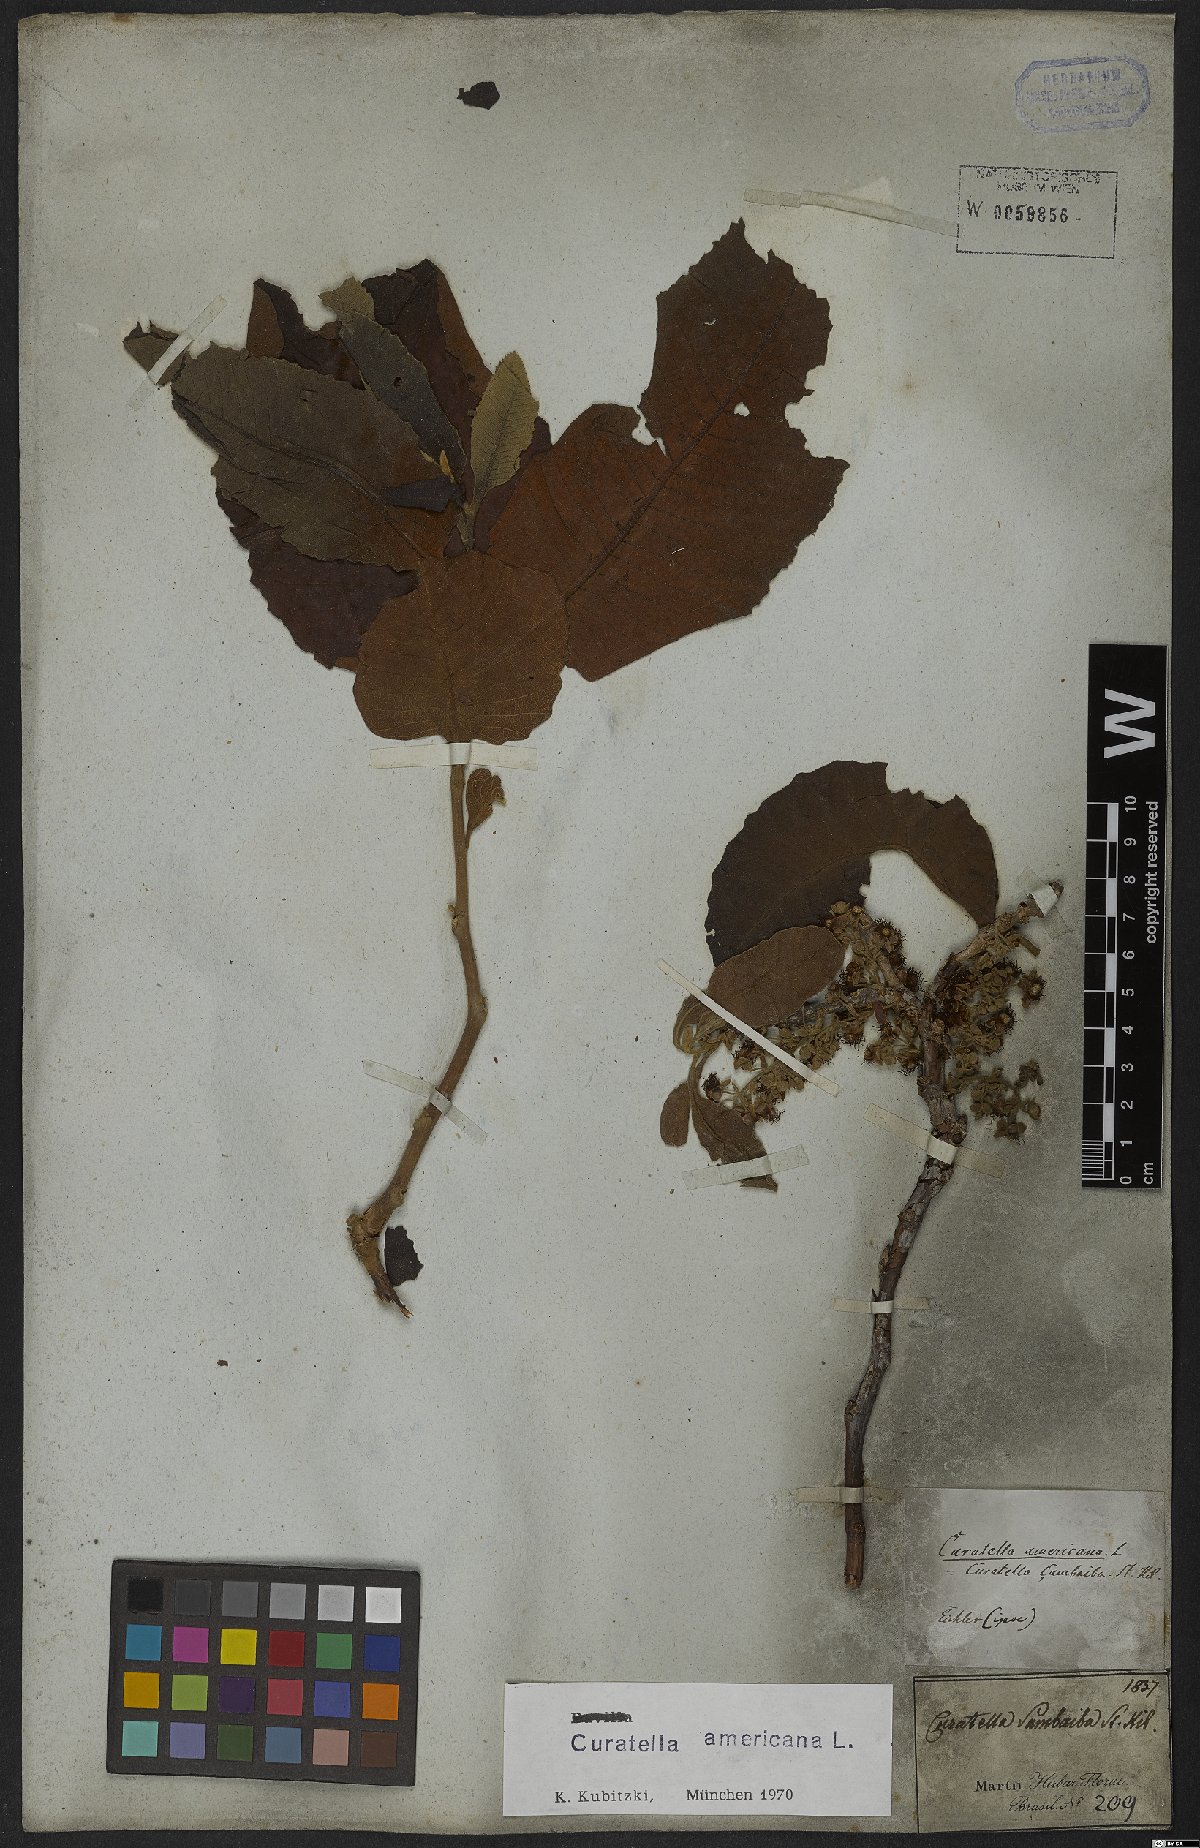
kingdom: Plantae
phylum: Tracheophyta
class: Magnoliopsida
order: Dilleniales
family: Dilleniaceae
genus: Curatella
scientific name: Curatella americana
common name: Sandpaper tree
